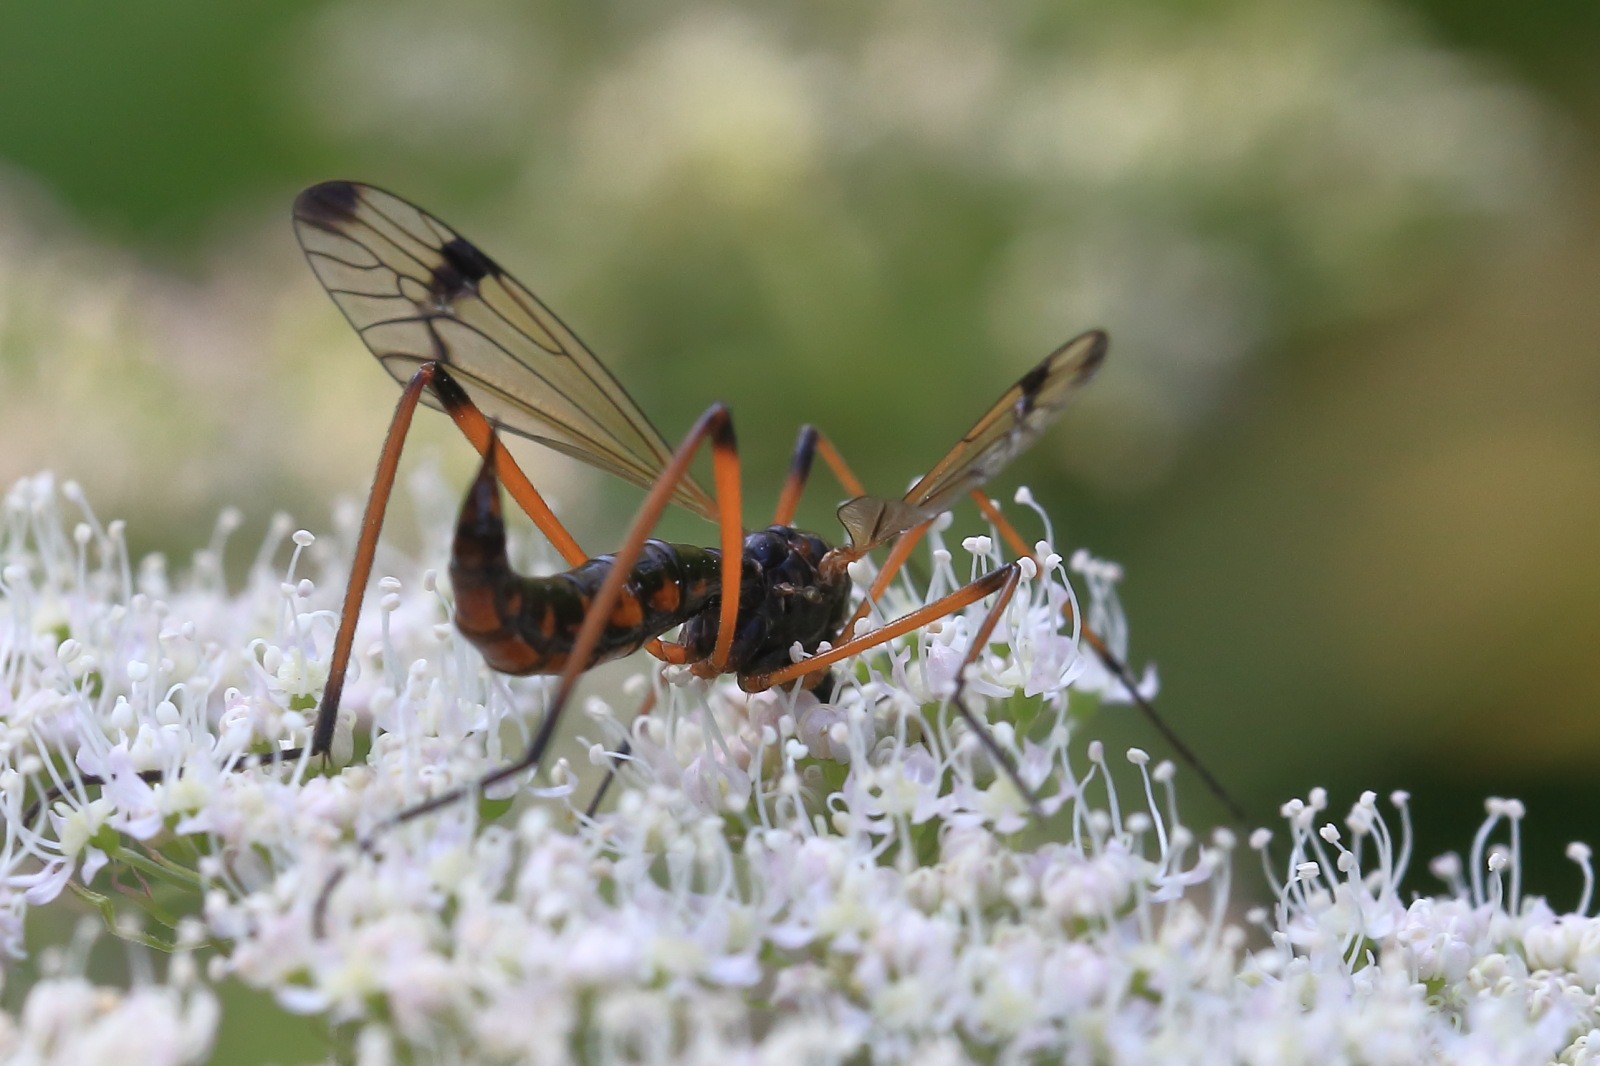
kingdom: Animalia
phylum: Arthropoda
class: Insecta
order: Diptera
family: Tipulidae
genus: Dictenidia
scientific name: Dictenidia bimaculata
